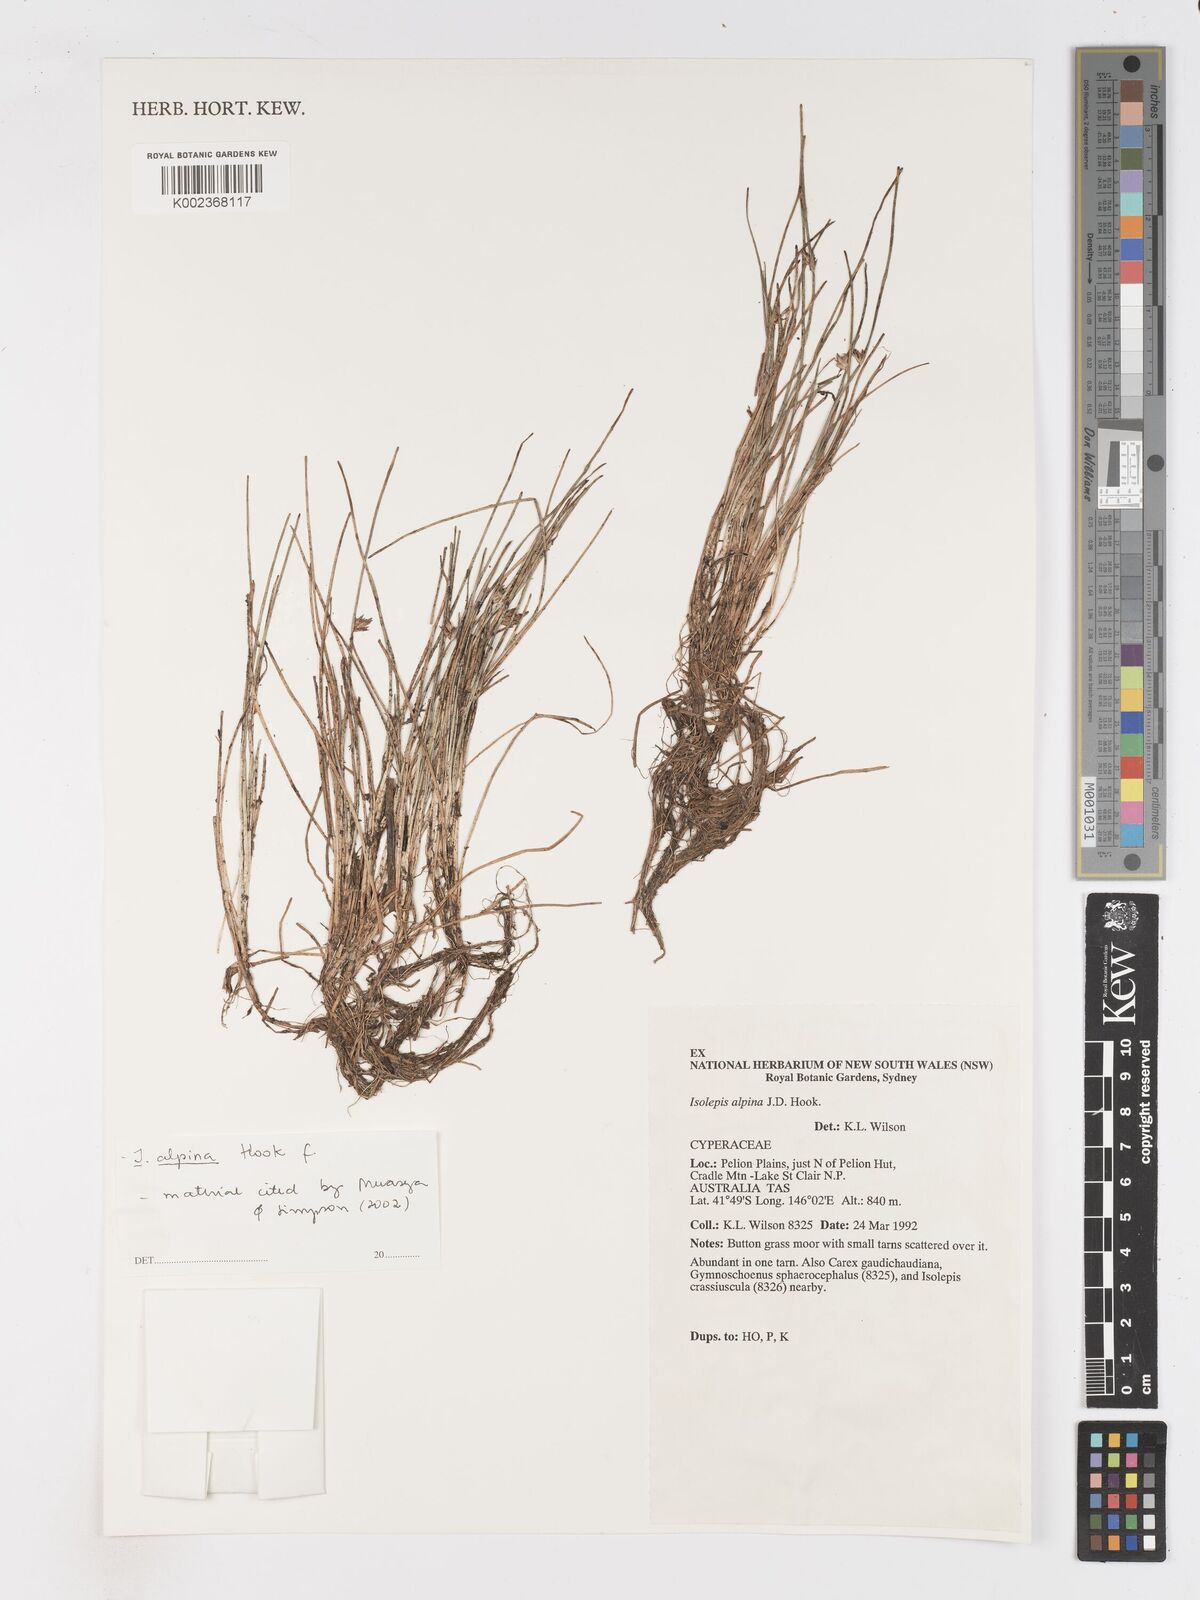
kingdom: Plantae
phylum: Tracheophyta
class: Liliopsida
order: Poales
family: Cyperaceae
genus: Isolepis
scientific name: Isolepis alpina
